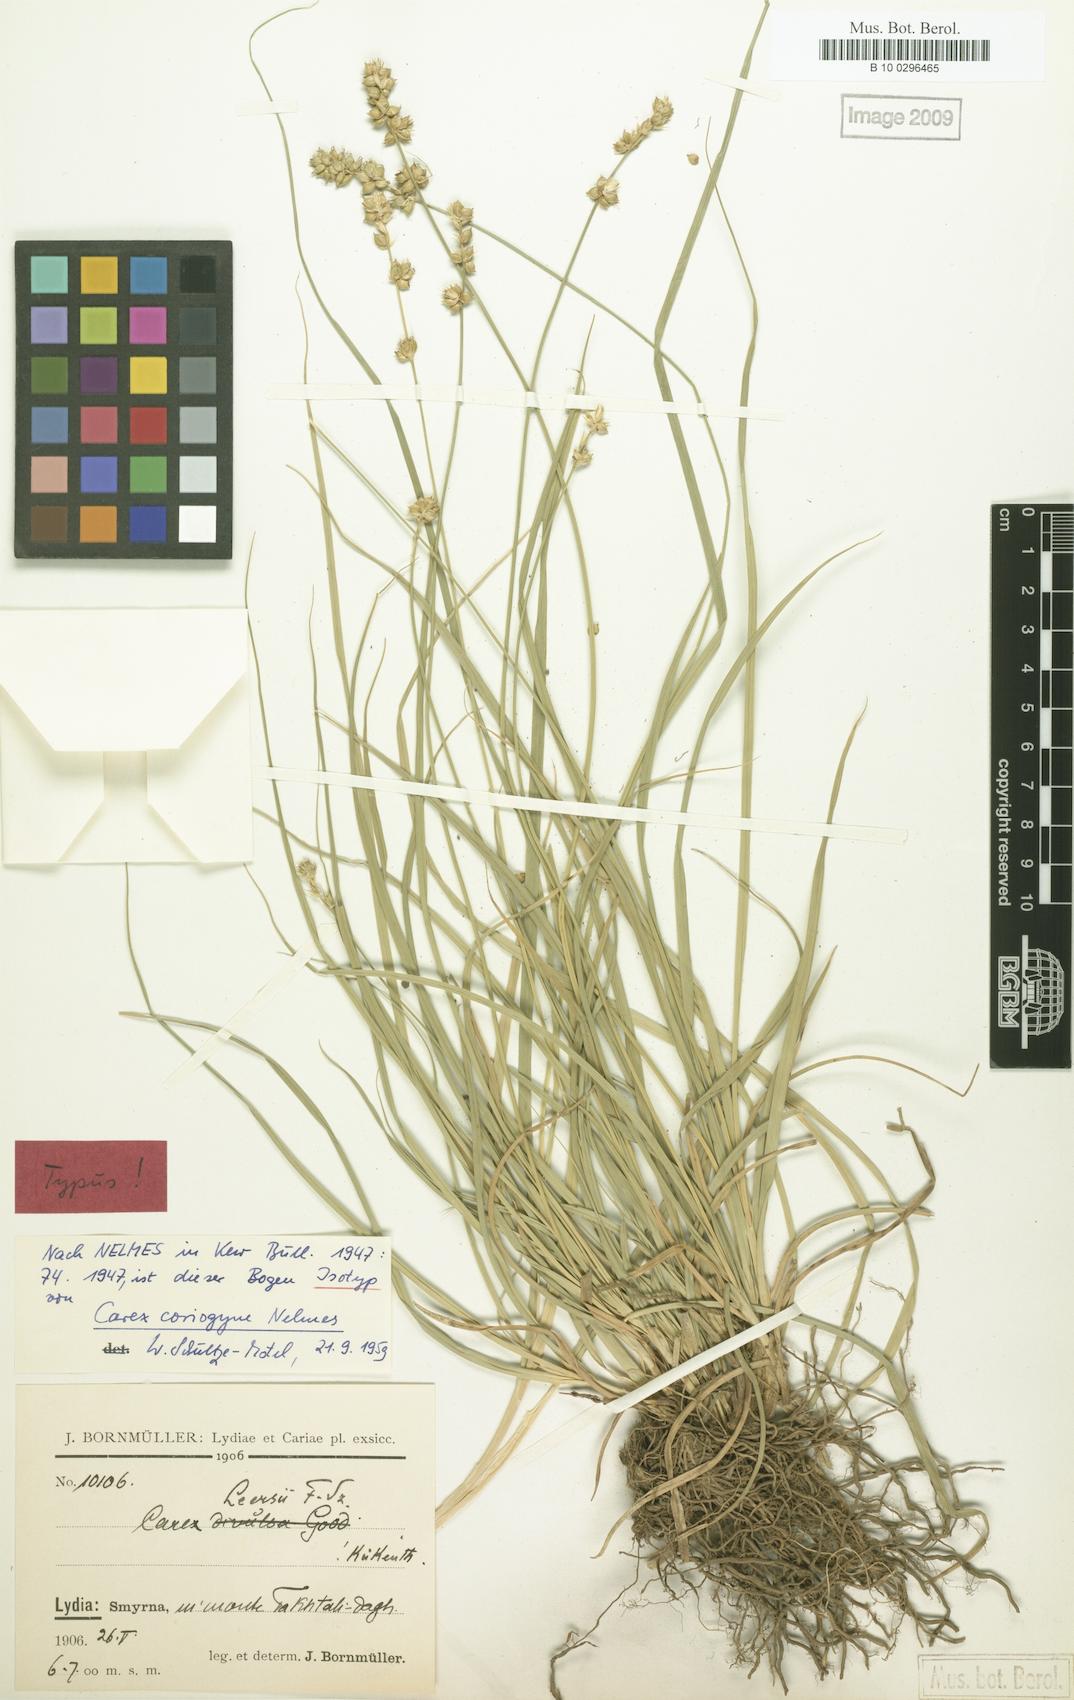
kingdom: Plantae
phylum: Tracheophyta
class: Liliopsida
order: Poales
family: Cyperaceae
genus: Carex
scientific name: Carex coriogyne
